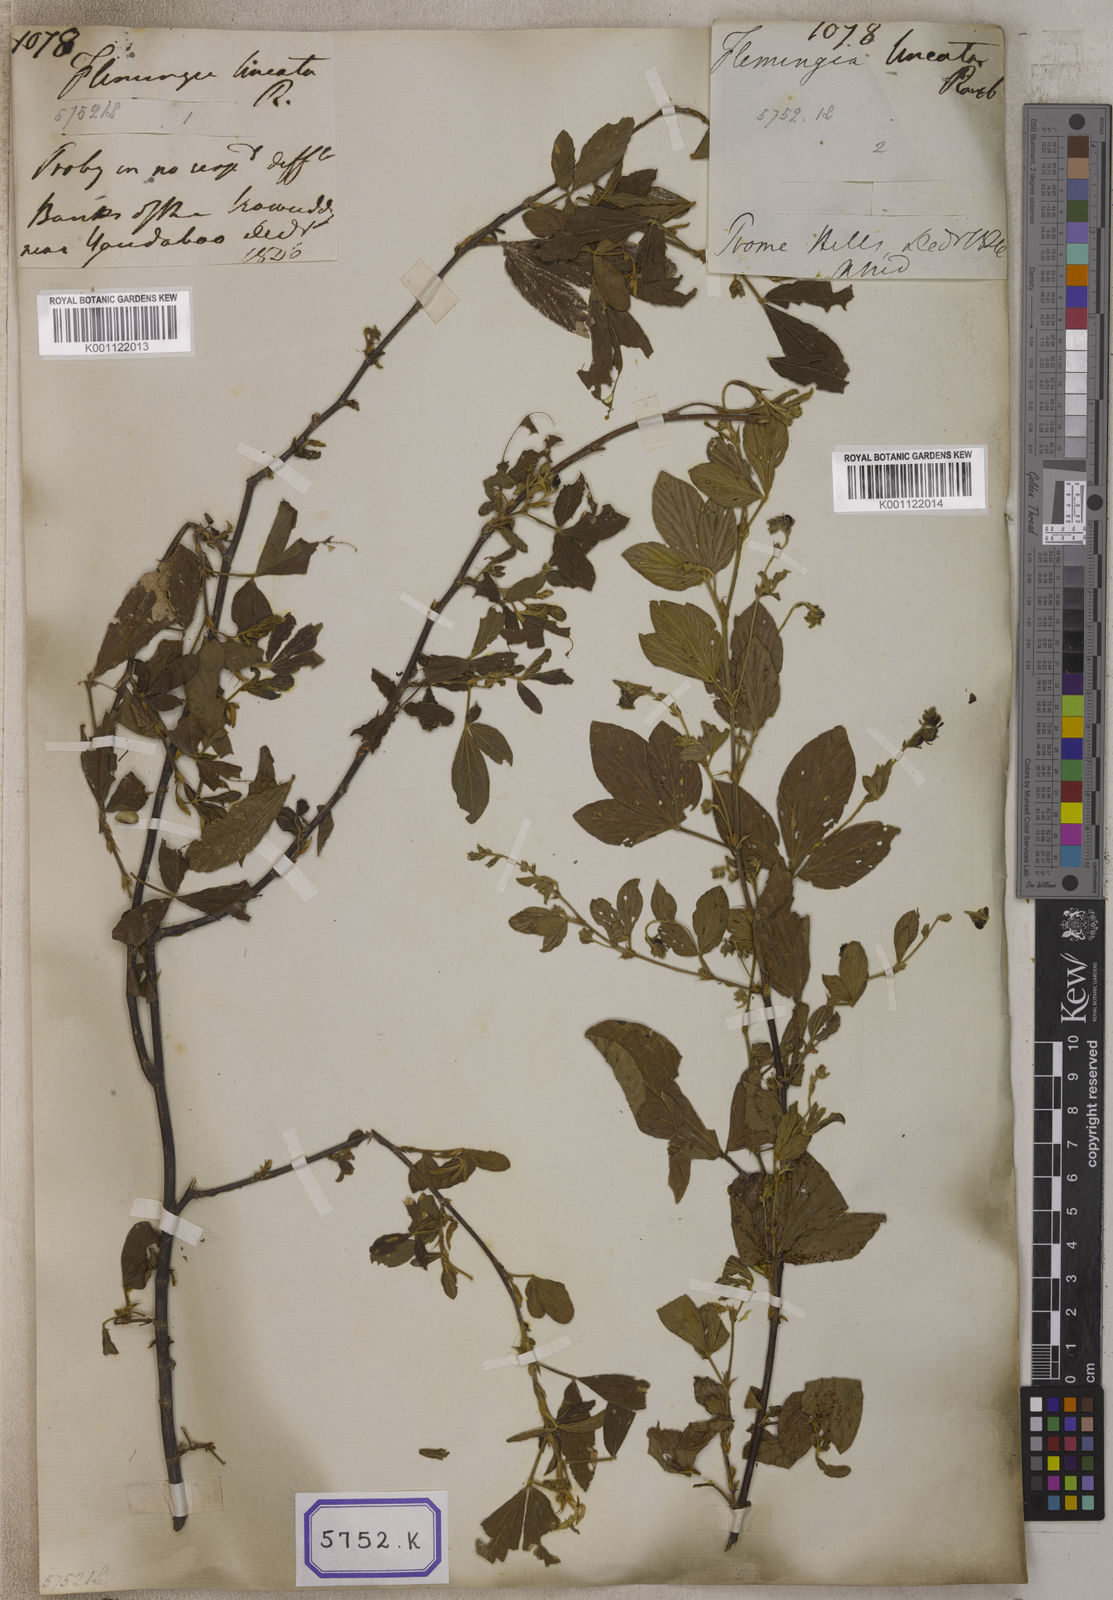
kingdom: Plantae
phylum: Tracheophyta
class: Magnoliopsida
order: Fabales
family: Fabaceae
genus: Flemingia
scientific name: Flemingia lineata
